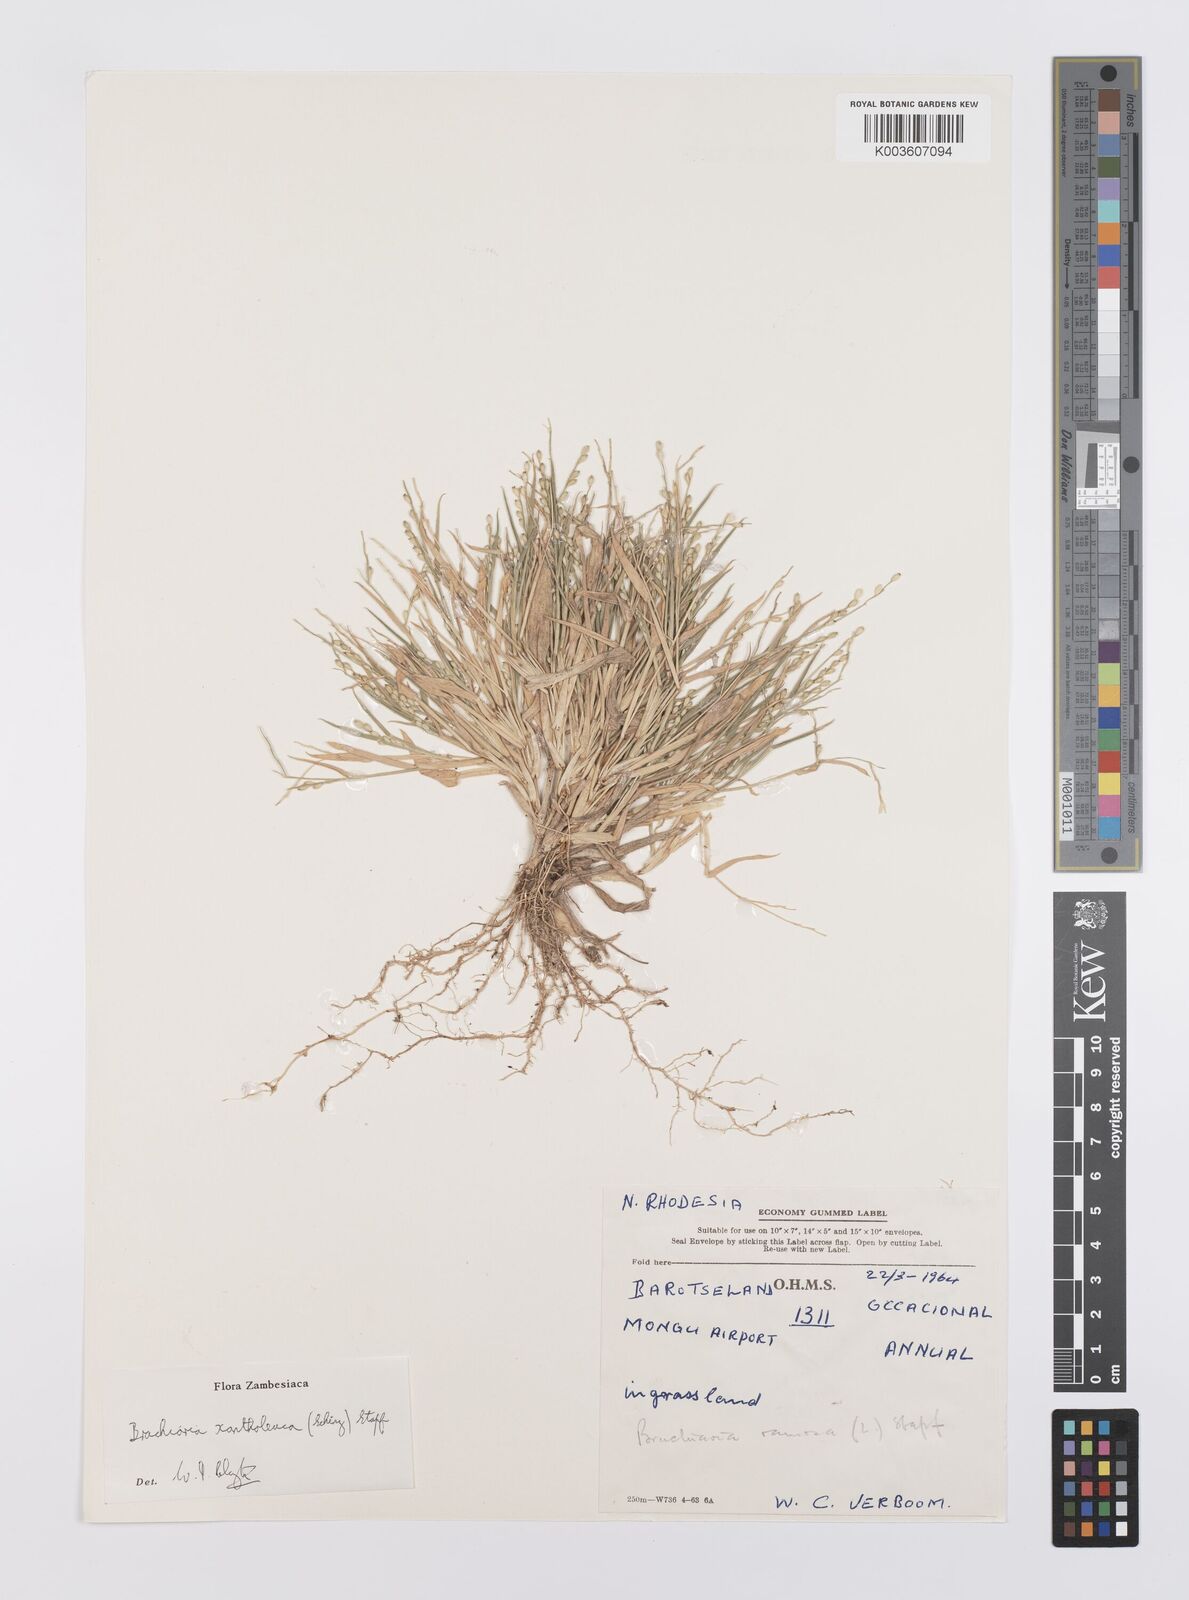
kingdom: Plantae
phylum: Tracheophyta
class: Liliopsida
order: Poales
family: Poaceae
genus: Urochloa
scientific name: Urochloa xantholeuca
